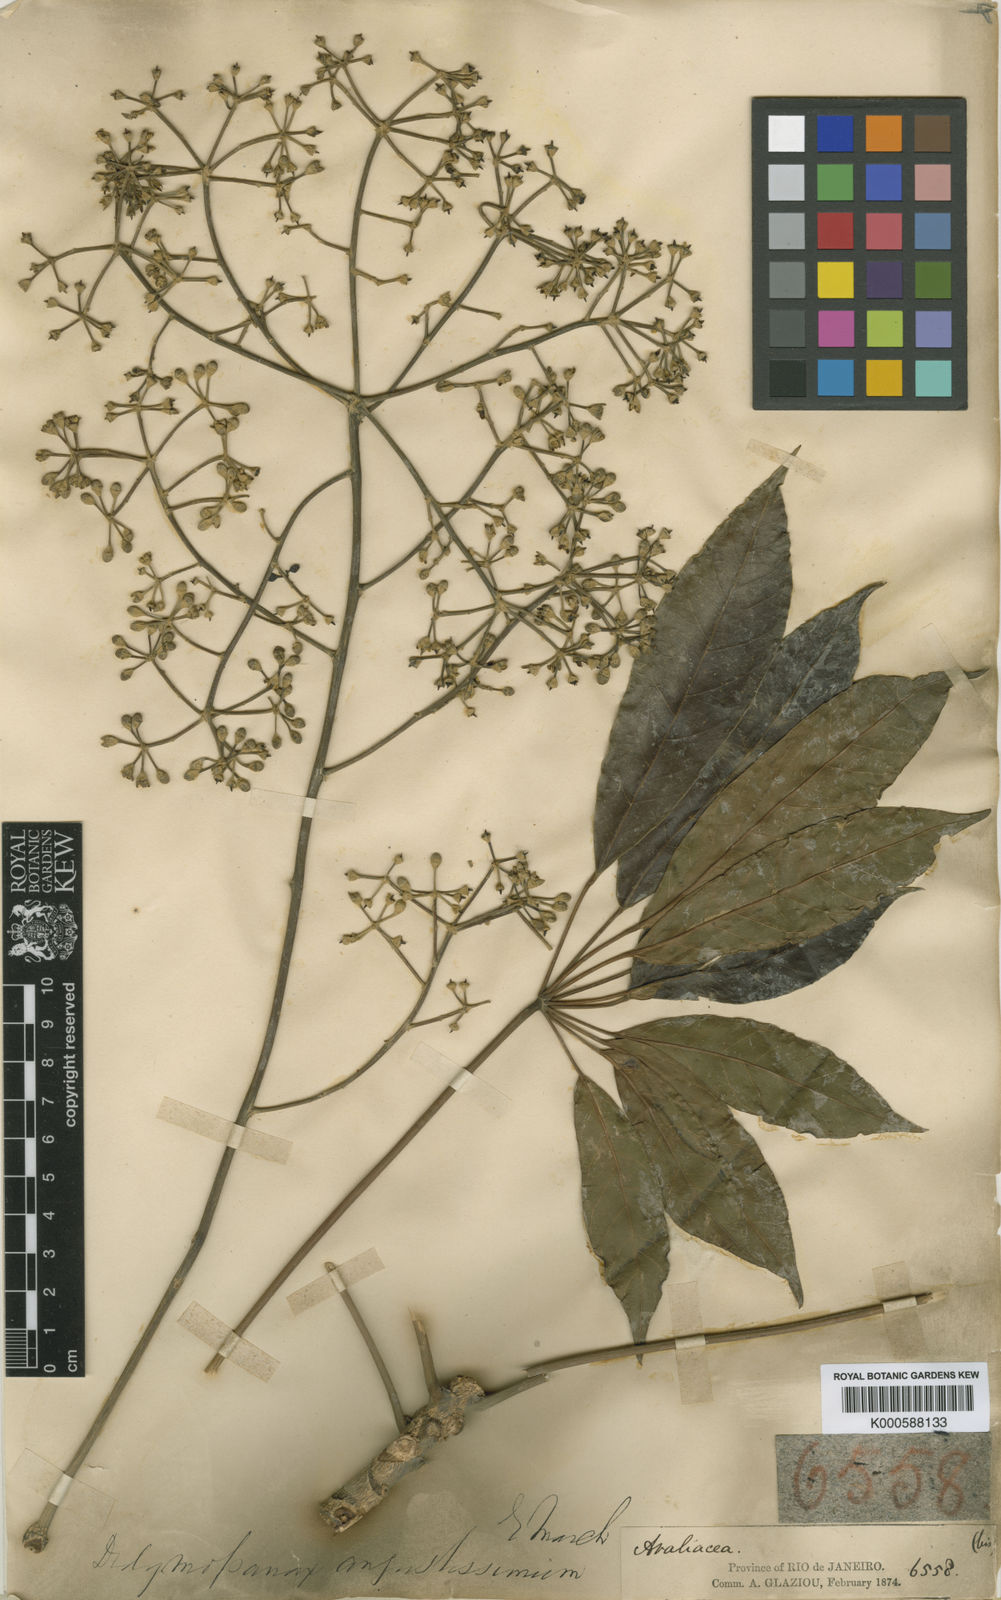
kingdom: Plantae
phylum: Tracheophyta
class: Magnoliopsida
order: Apiales
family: Araliaceae
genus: Didymopanax
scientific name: Didymopanax angustissimus
